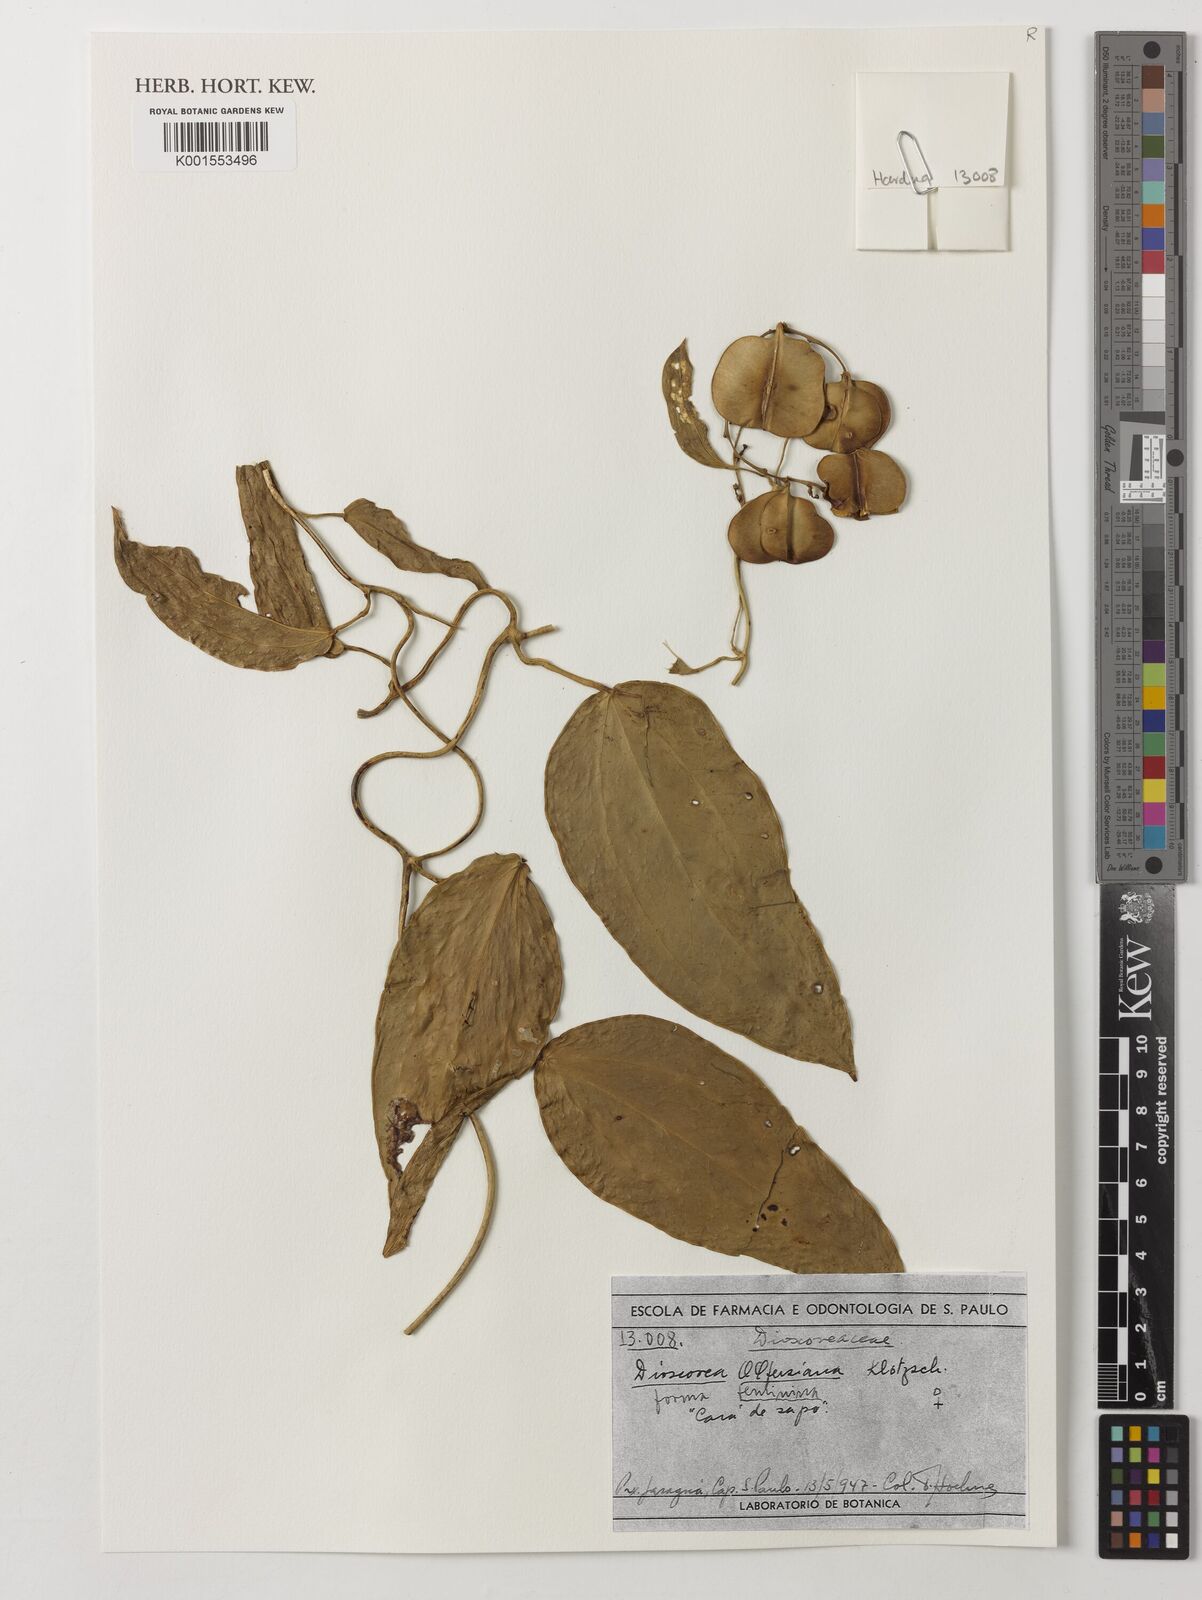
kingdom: Plantae
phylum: Tracheophyta
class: Liliopsida
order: Dioscoreales
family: Dioscoreaceae
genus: Dioscorea
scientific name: Dioscorea olfersiana
